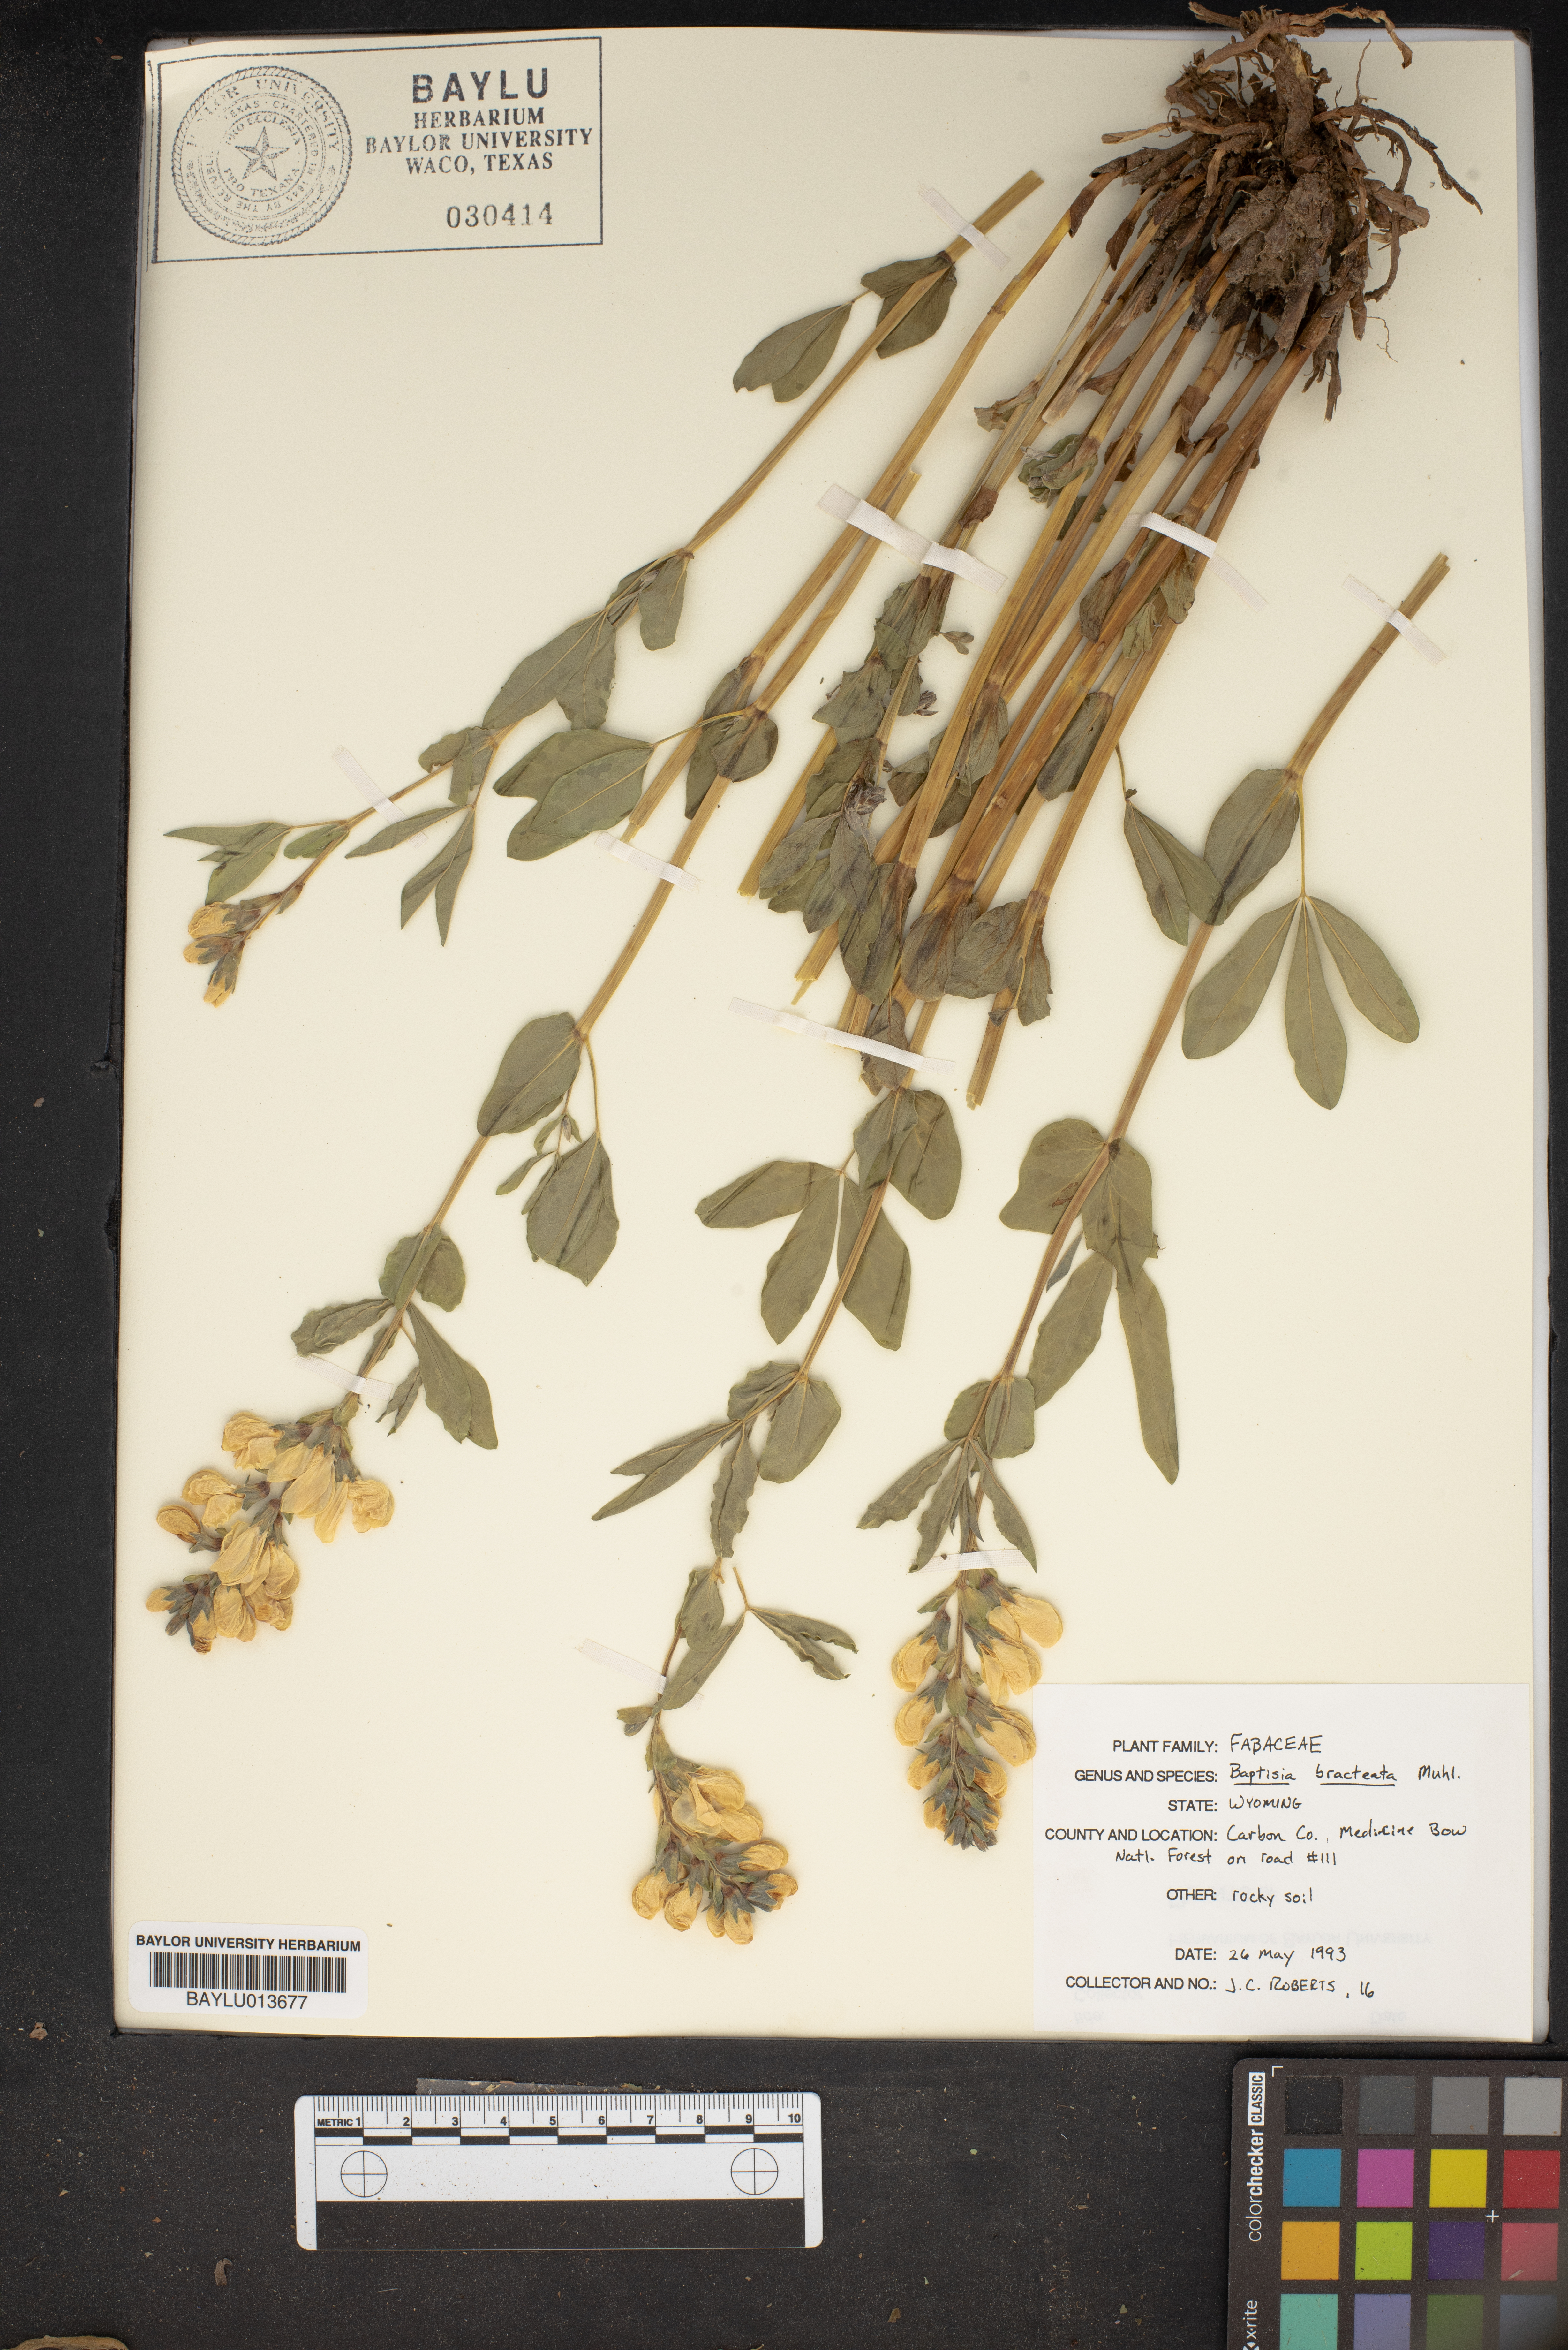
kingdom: Plantae
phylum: Tracheophyta
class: Magnoliopsida
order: Fabales
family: Fabaceae
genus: Baptisia
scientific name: Baptisia bracteata
